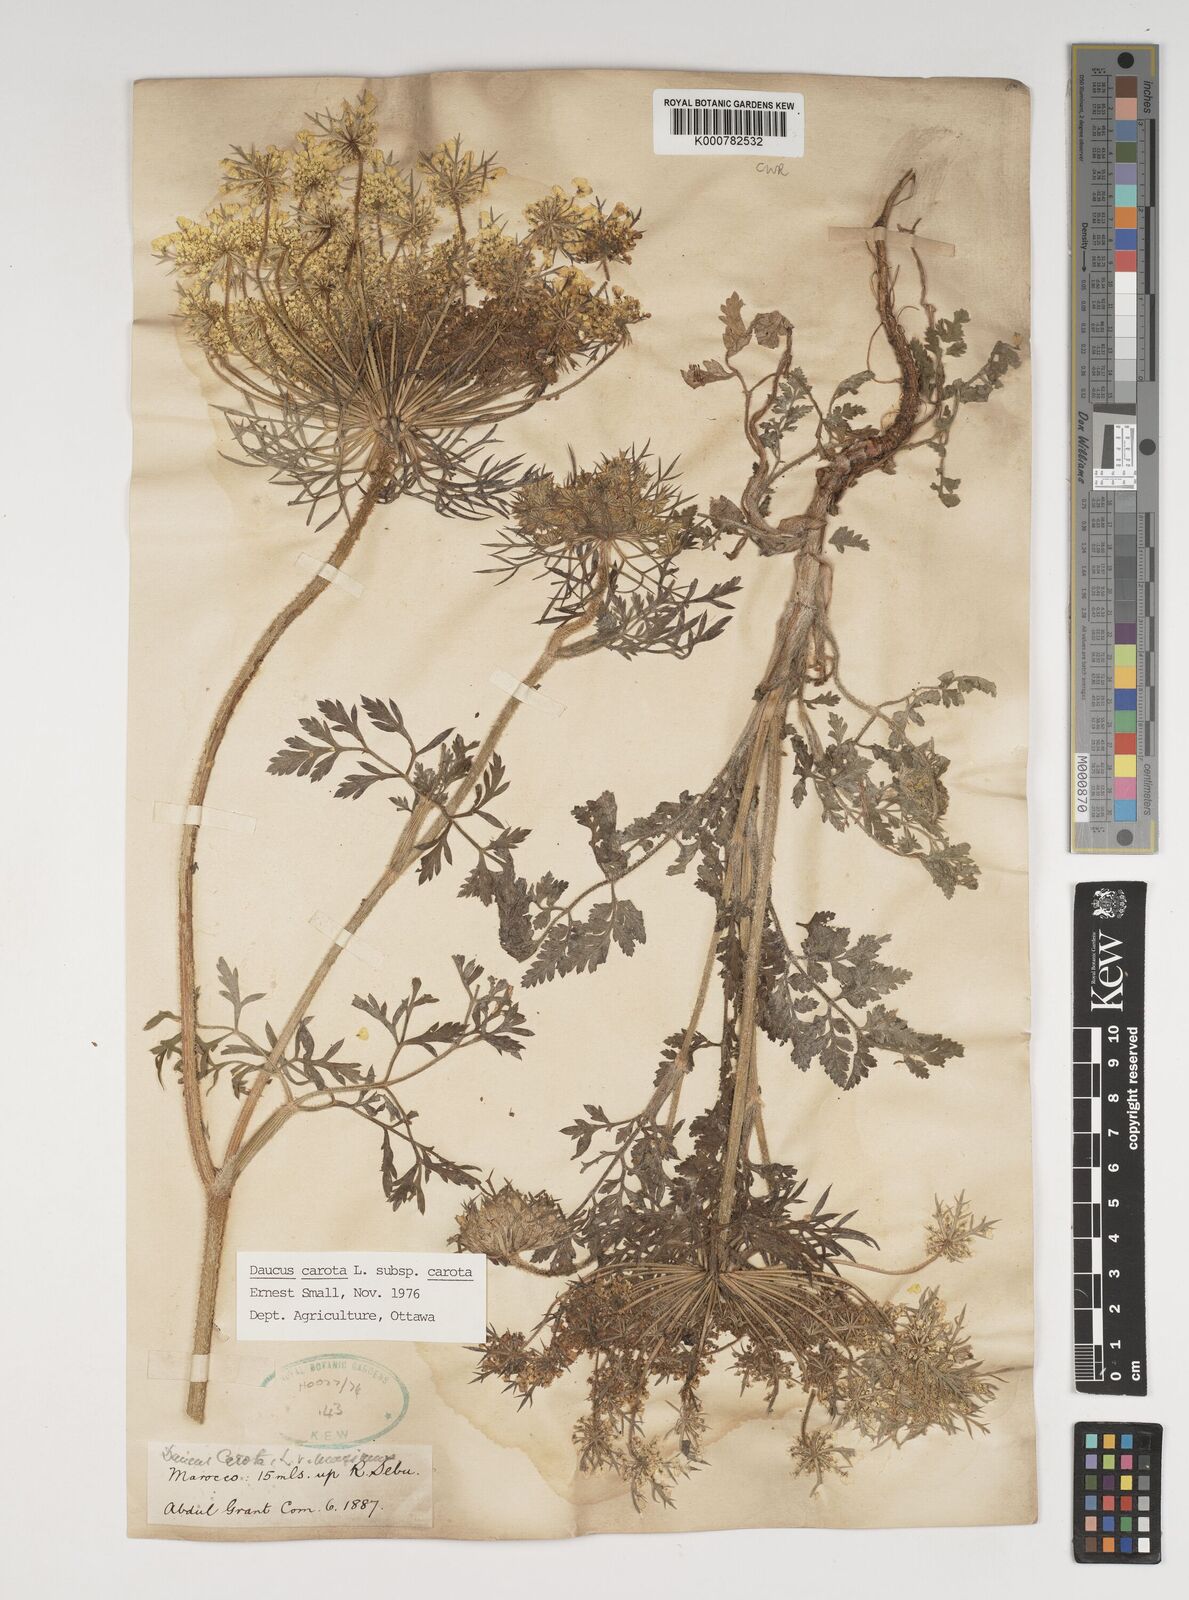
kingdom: Plantae
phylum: Tracheophyta
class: Magnoliopsida
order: Apiales
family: Apiaceae
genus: Daucus
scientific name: Daucus carota
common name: Wild carrot
